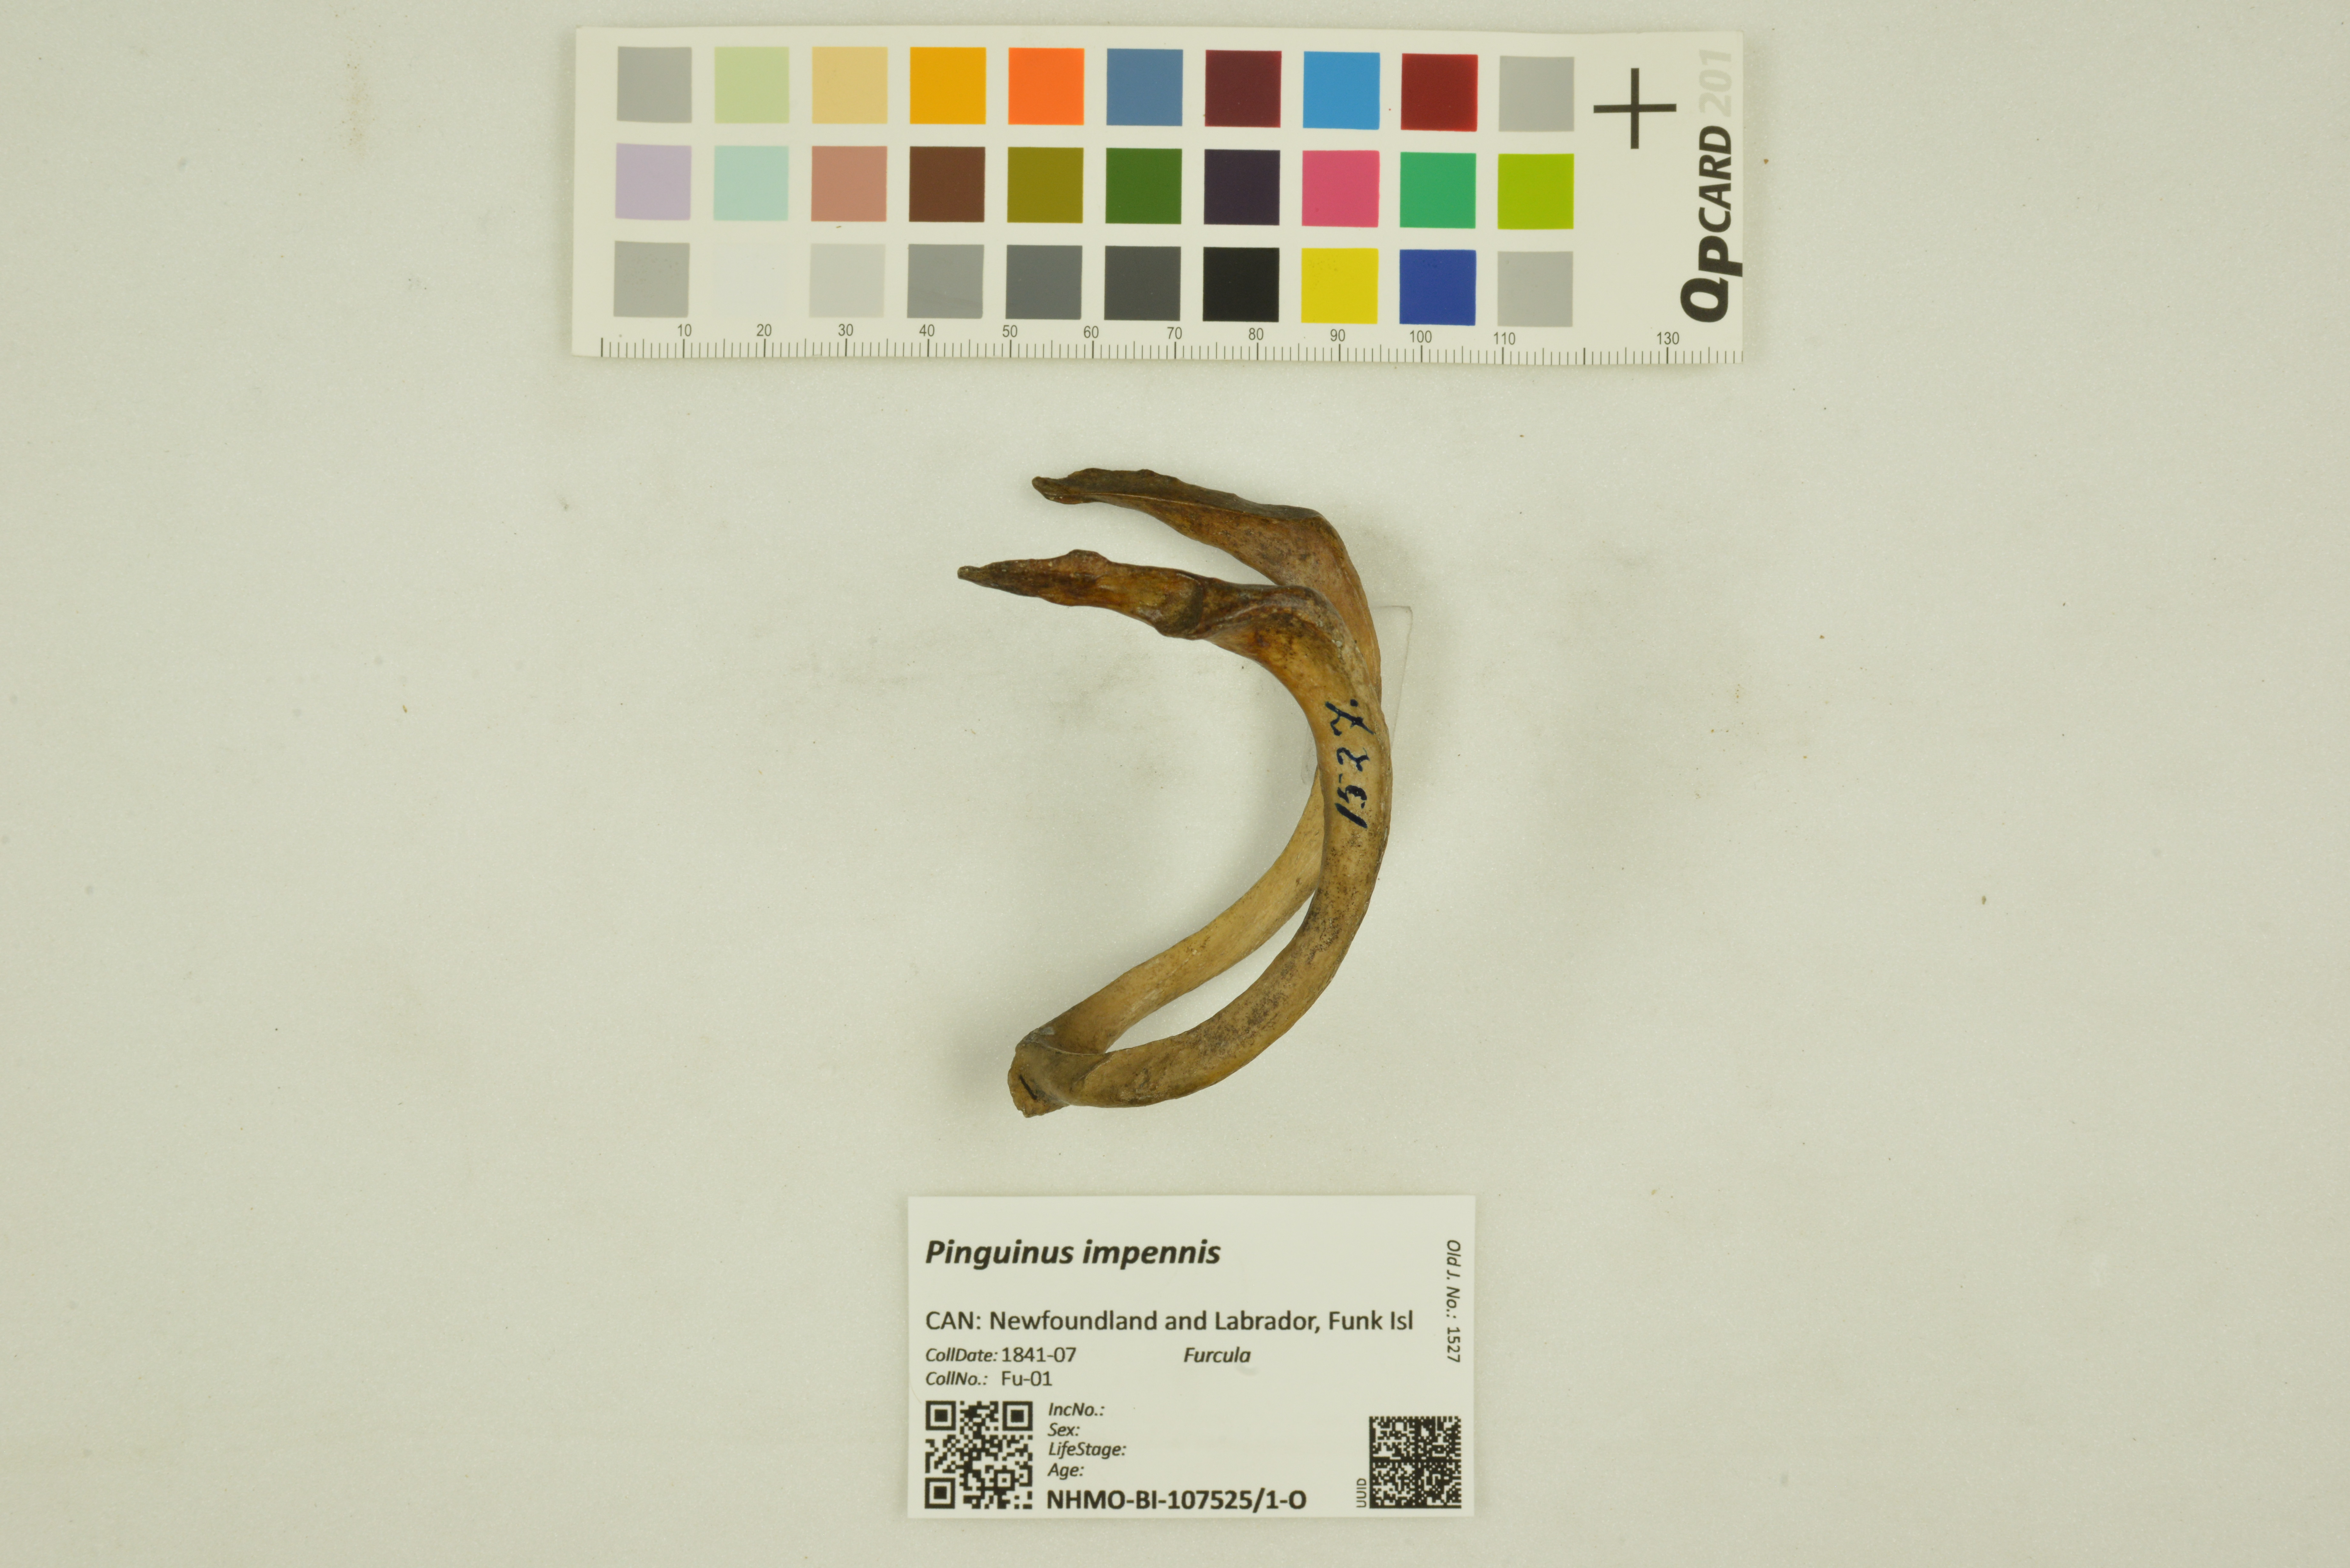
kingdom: Animalia
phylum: Chordata
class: Aves
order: Charadriiformes
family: Alcidae
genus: Pinguinus
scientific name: Pinguinus impennis
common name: Great auk
